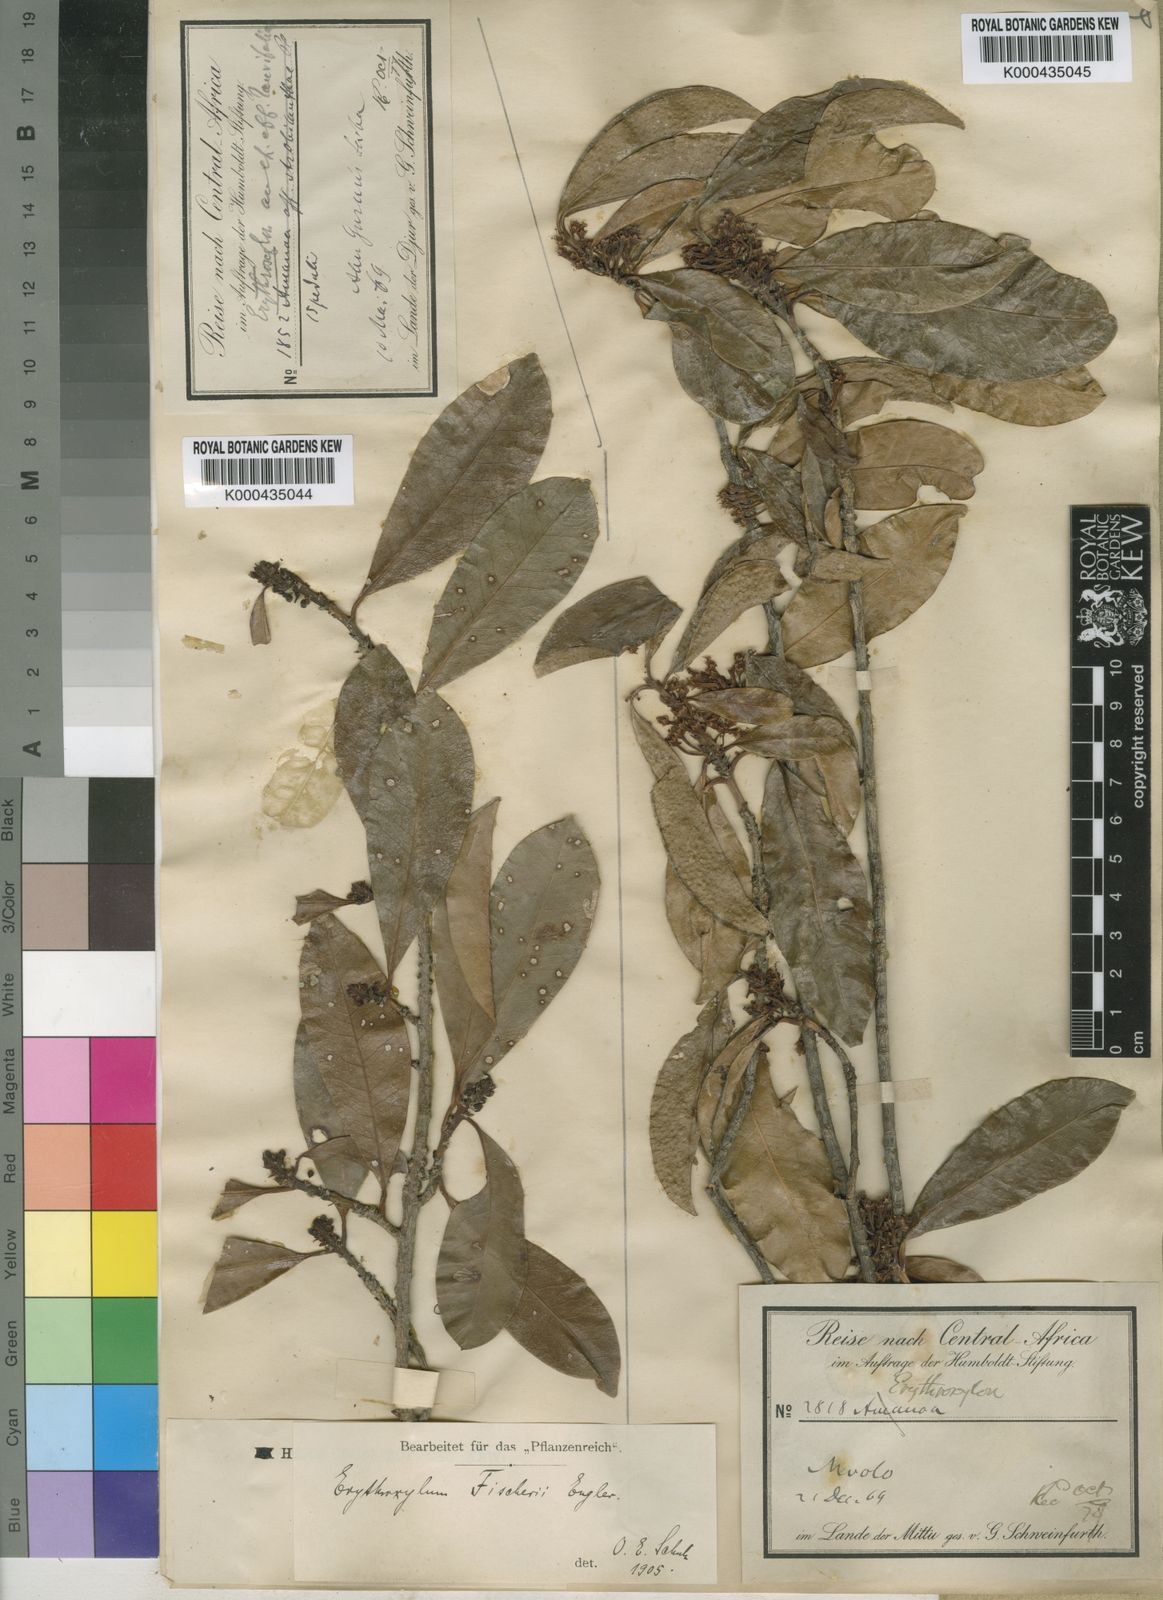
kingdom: Plantae
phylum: Tracheophyta
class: Magnoliopsida
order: Malpighiales
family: Erythroxylaceae
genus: Erythroxylum
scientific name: Erythroxylum fischeri
